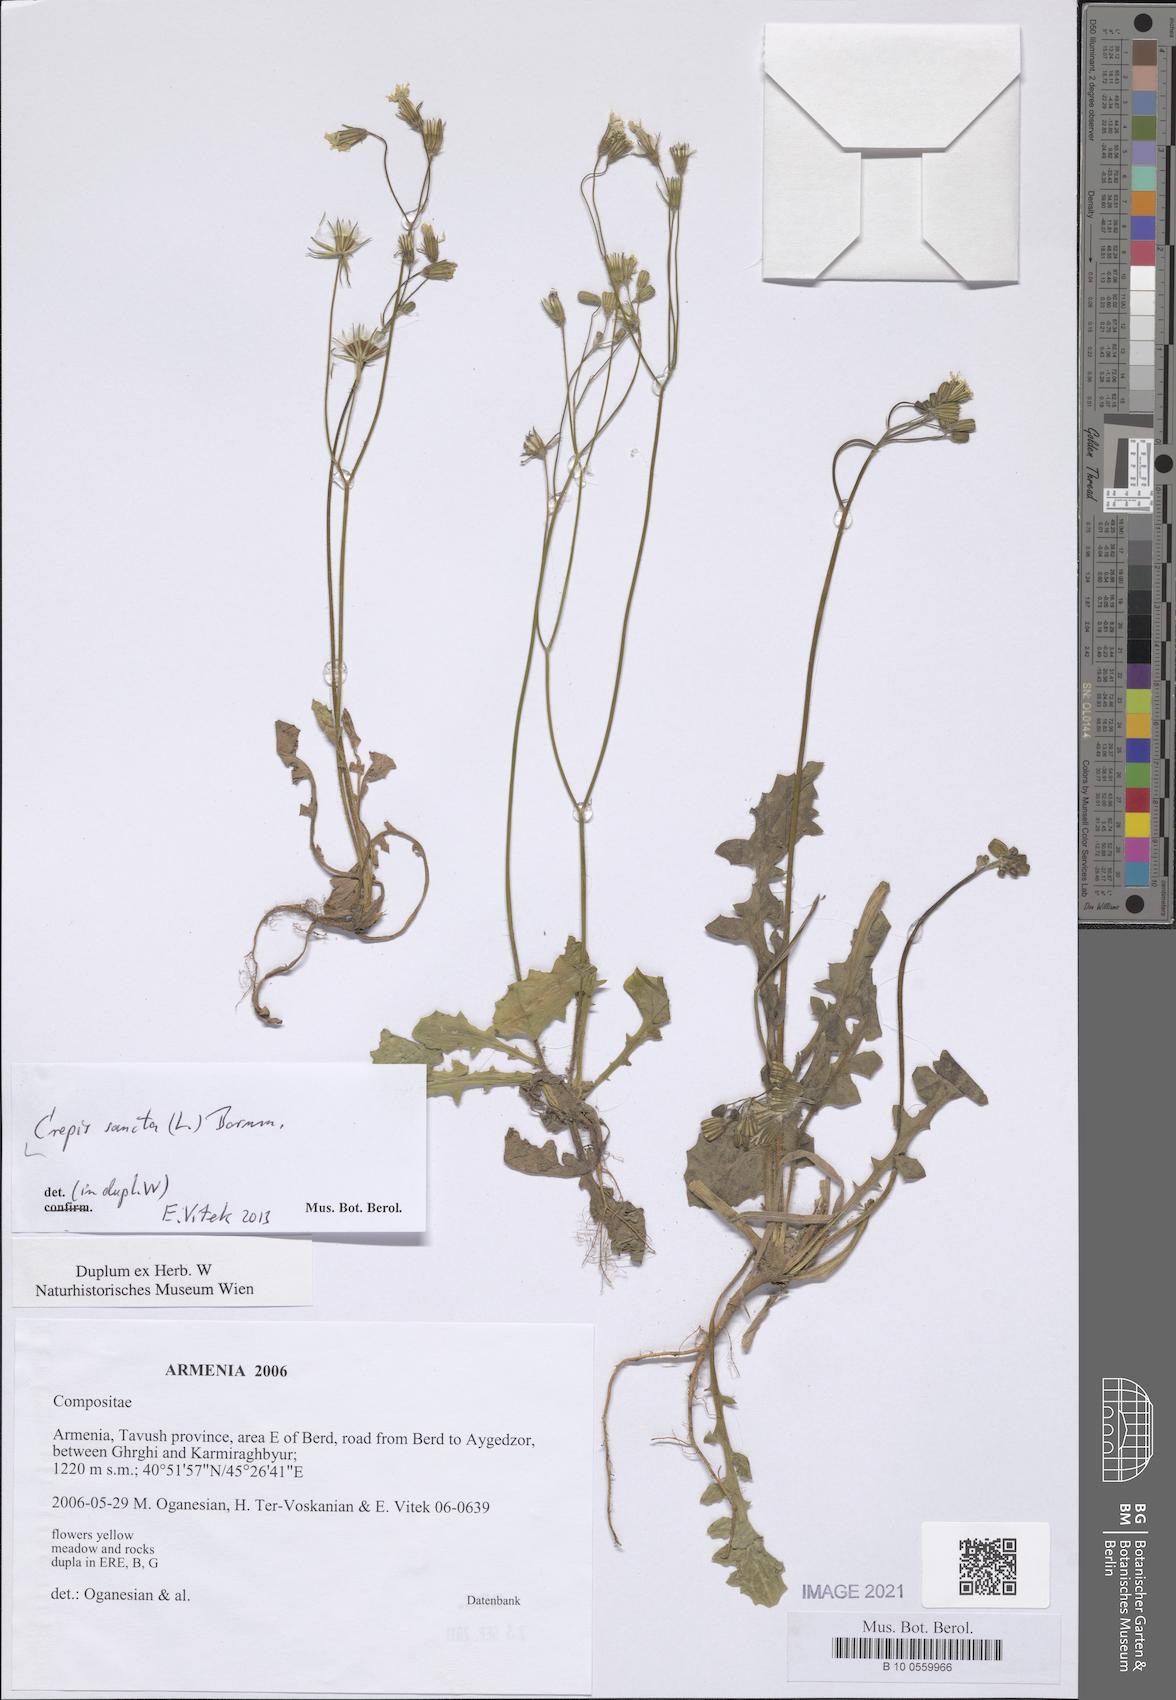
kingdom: Plantae
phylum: Tracheophyta
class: Magnoliopsida
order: Asterales
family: Asteraceae
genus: Crepis
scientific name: Crepis sancta
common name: Hawk's-beard
